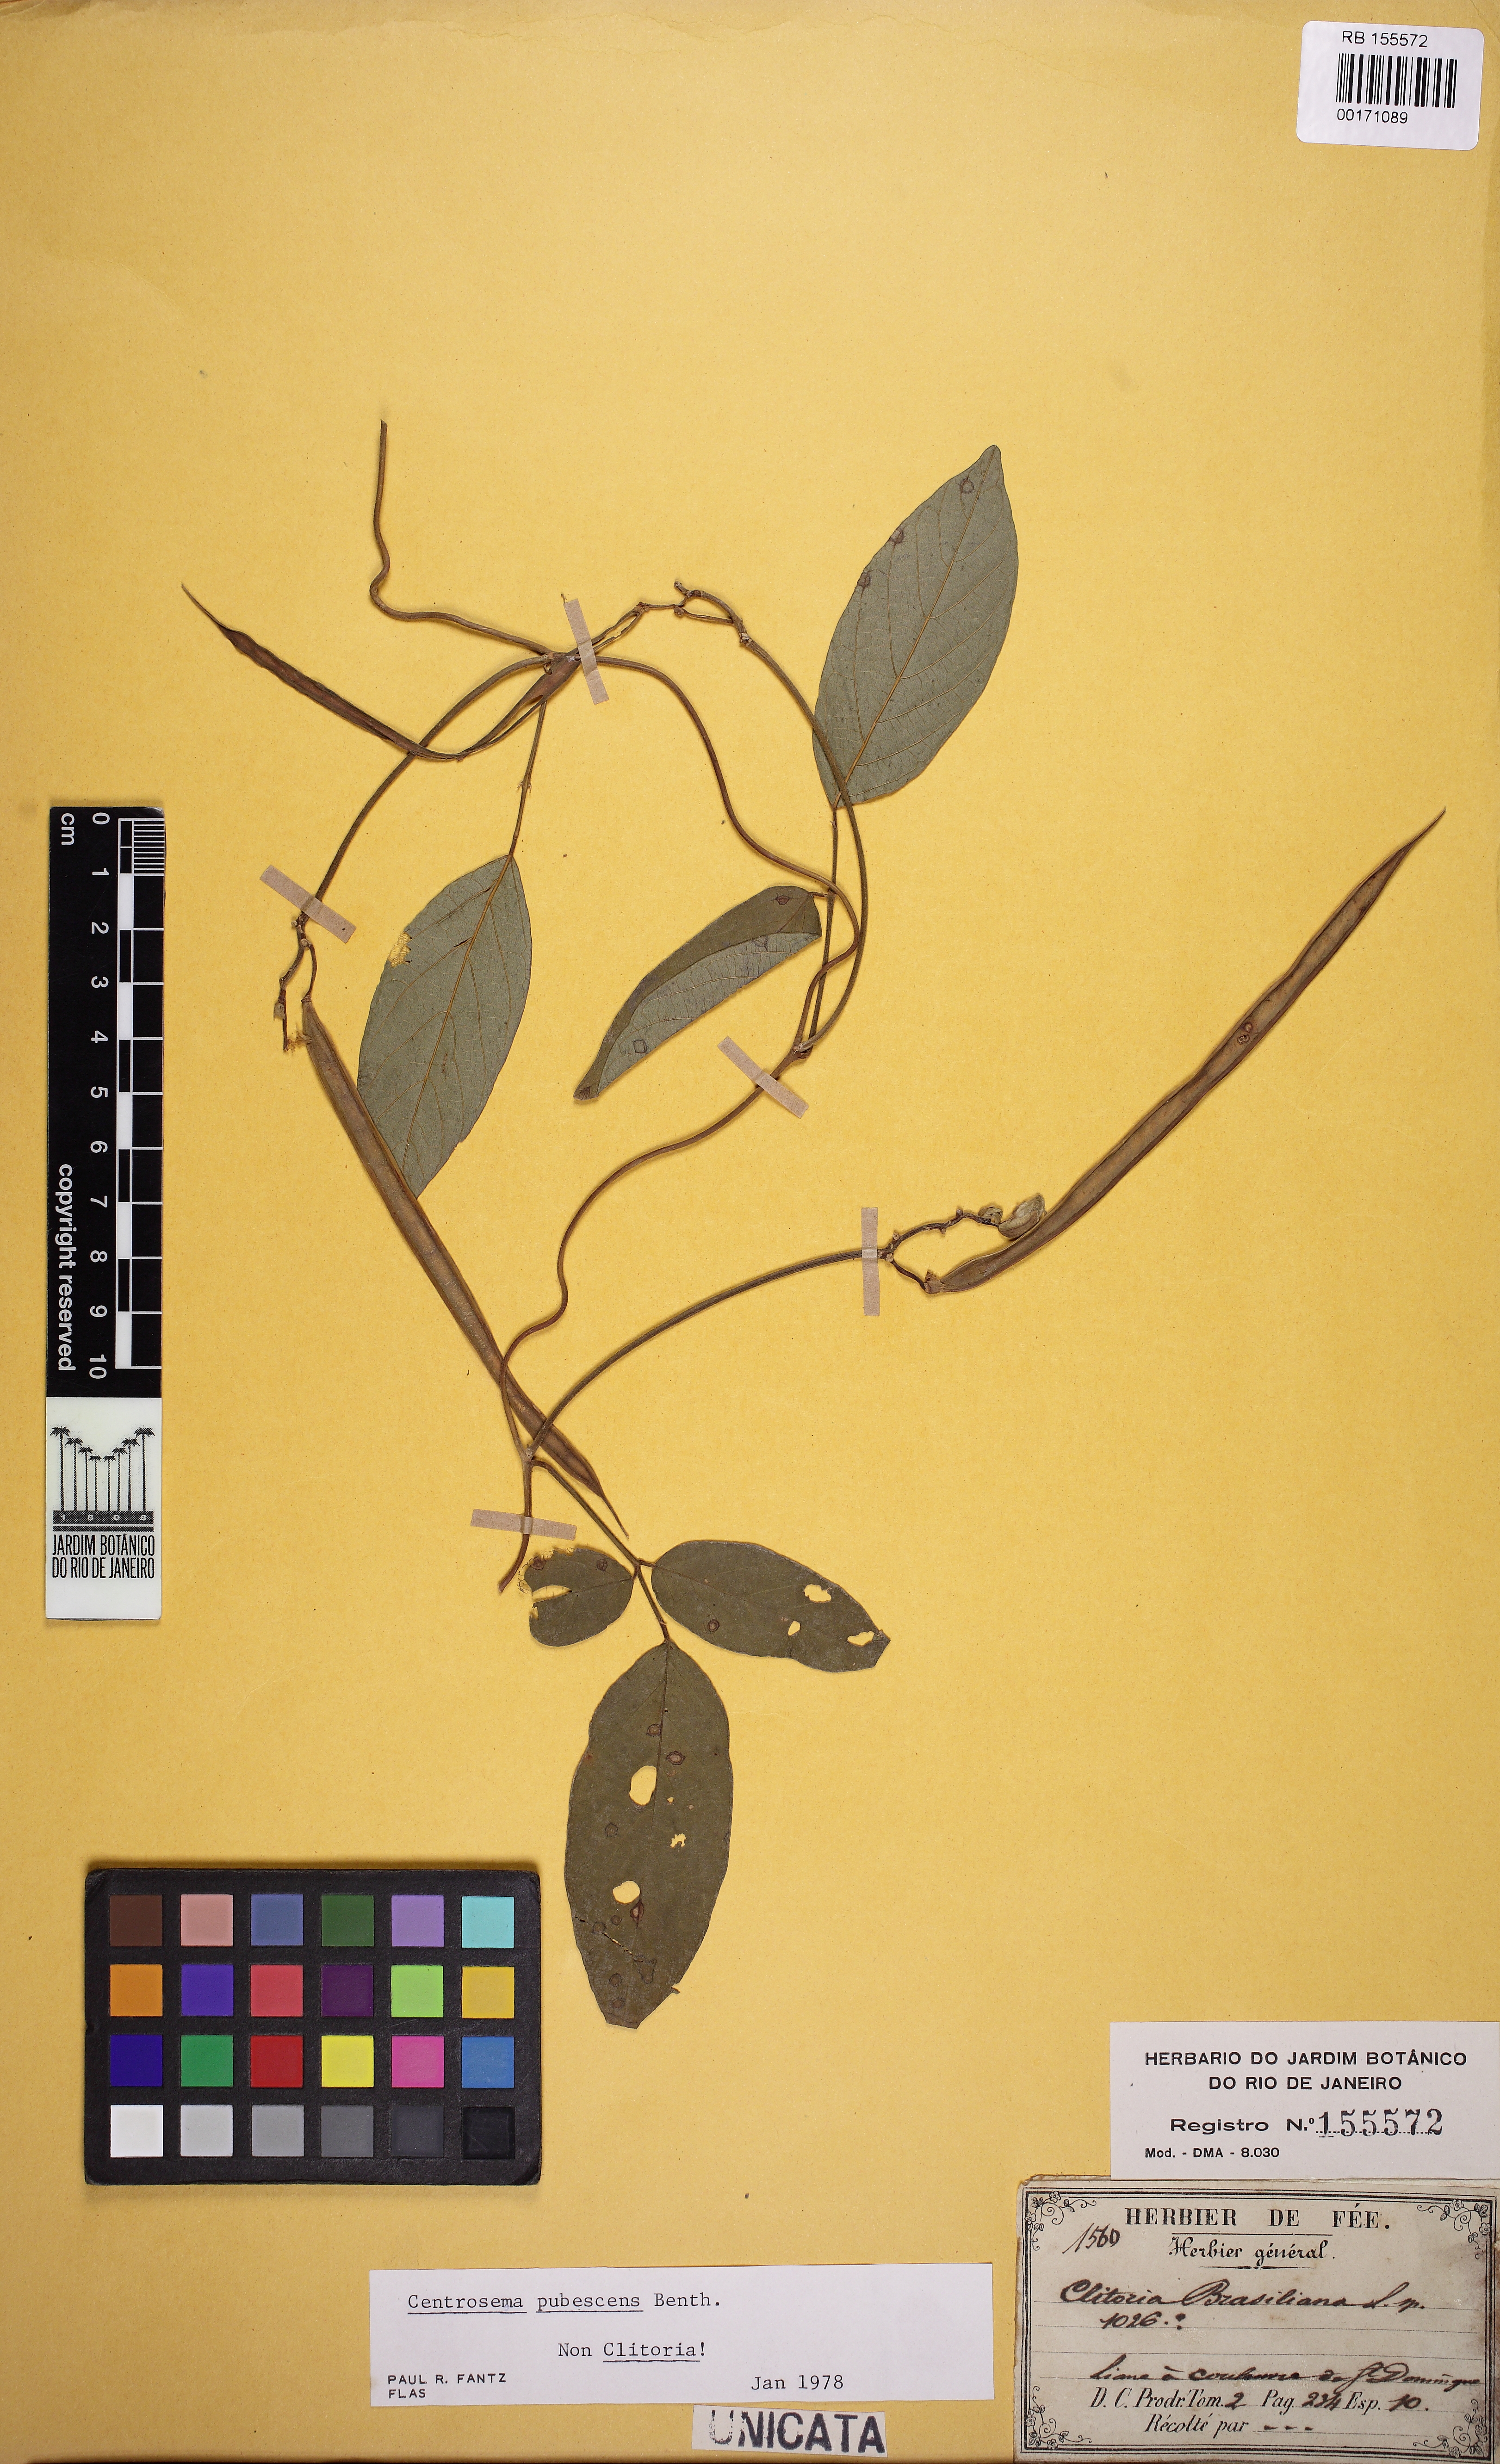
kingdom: Plantae
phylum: Tracheophyta
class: Magnoliopsida
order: Fabales
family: Fabaceae
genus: Centrosema
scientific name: Centrosema pubescens
